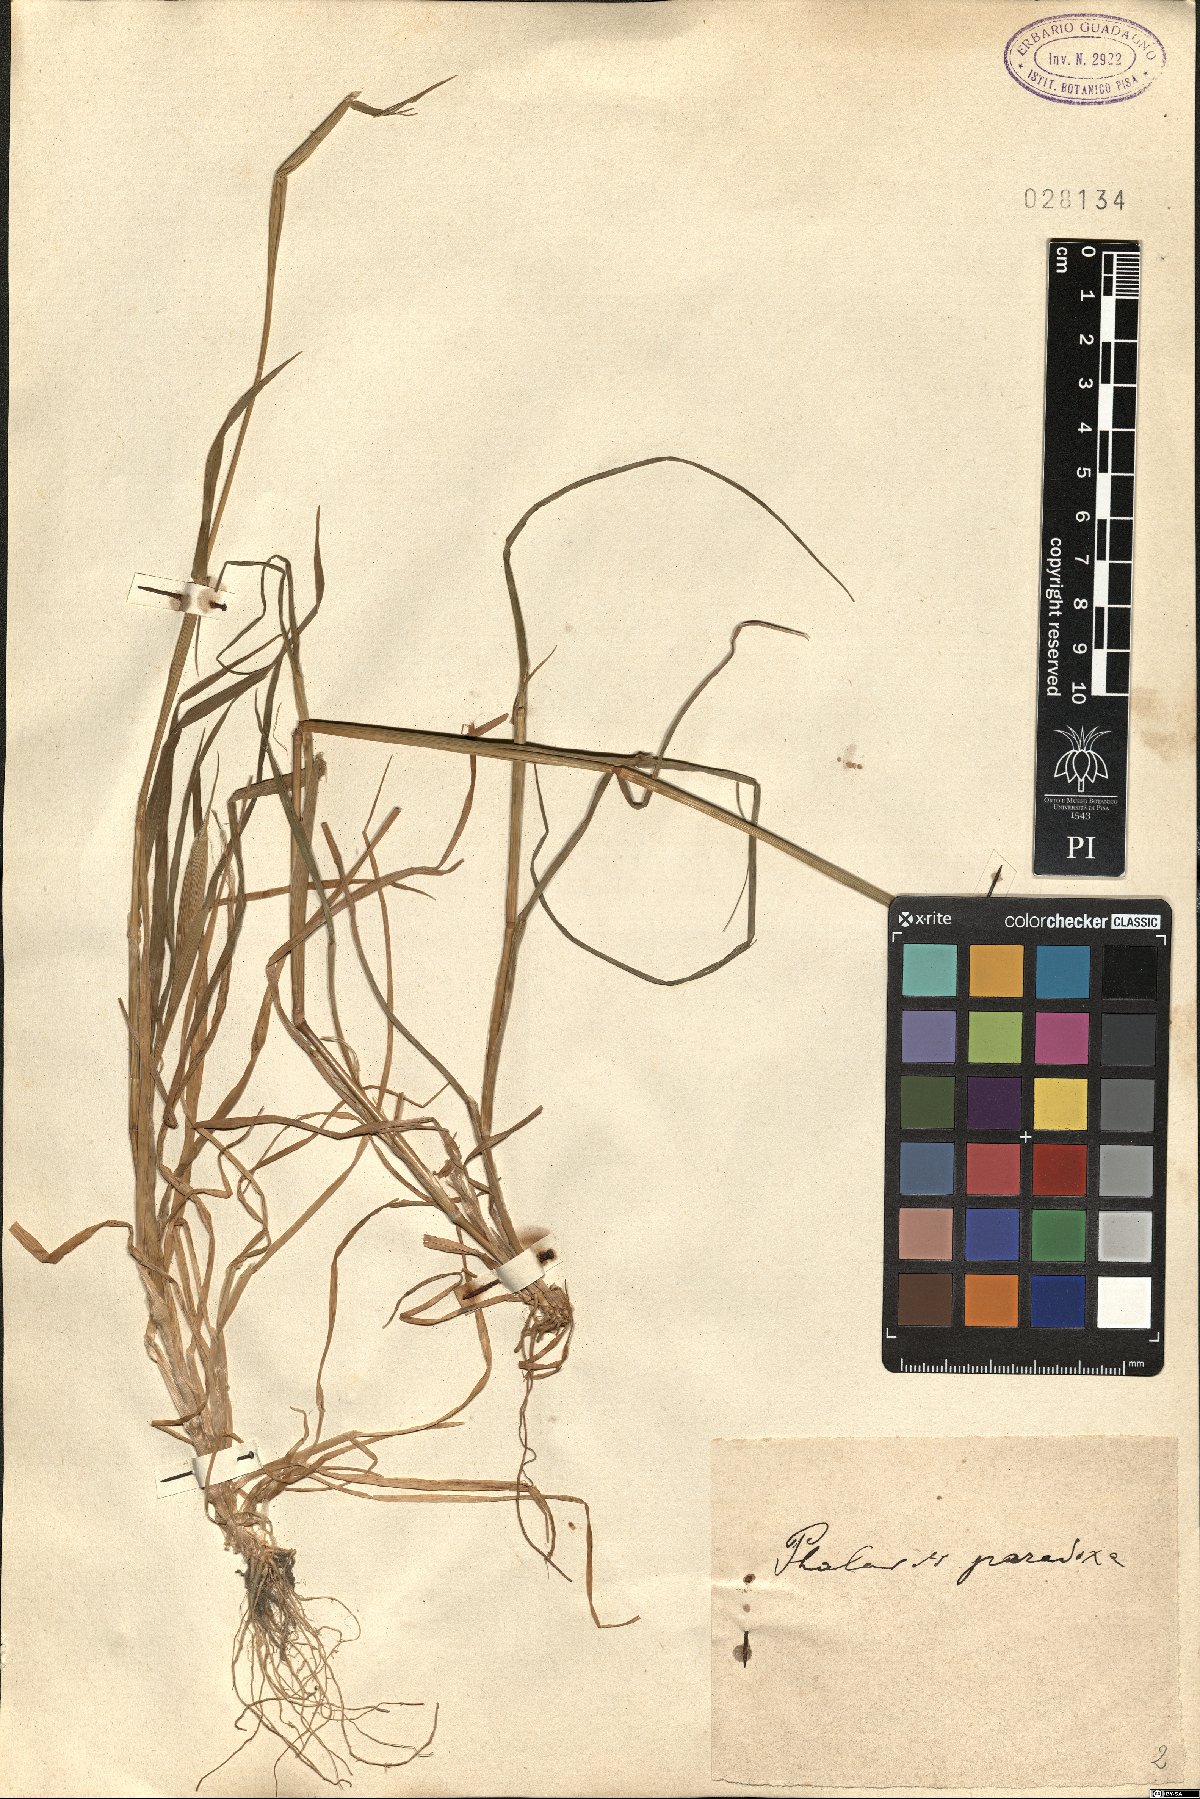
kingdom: Plantae
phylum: Tracheophyta
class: Liliopsida
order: Poales
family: Poaceae
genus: Phalaris
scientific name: Phalaris paradoxa
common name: Awned canary-grass
